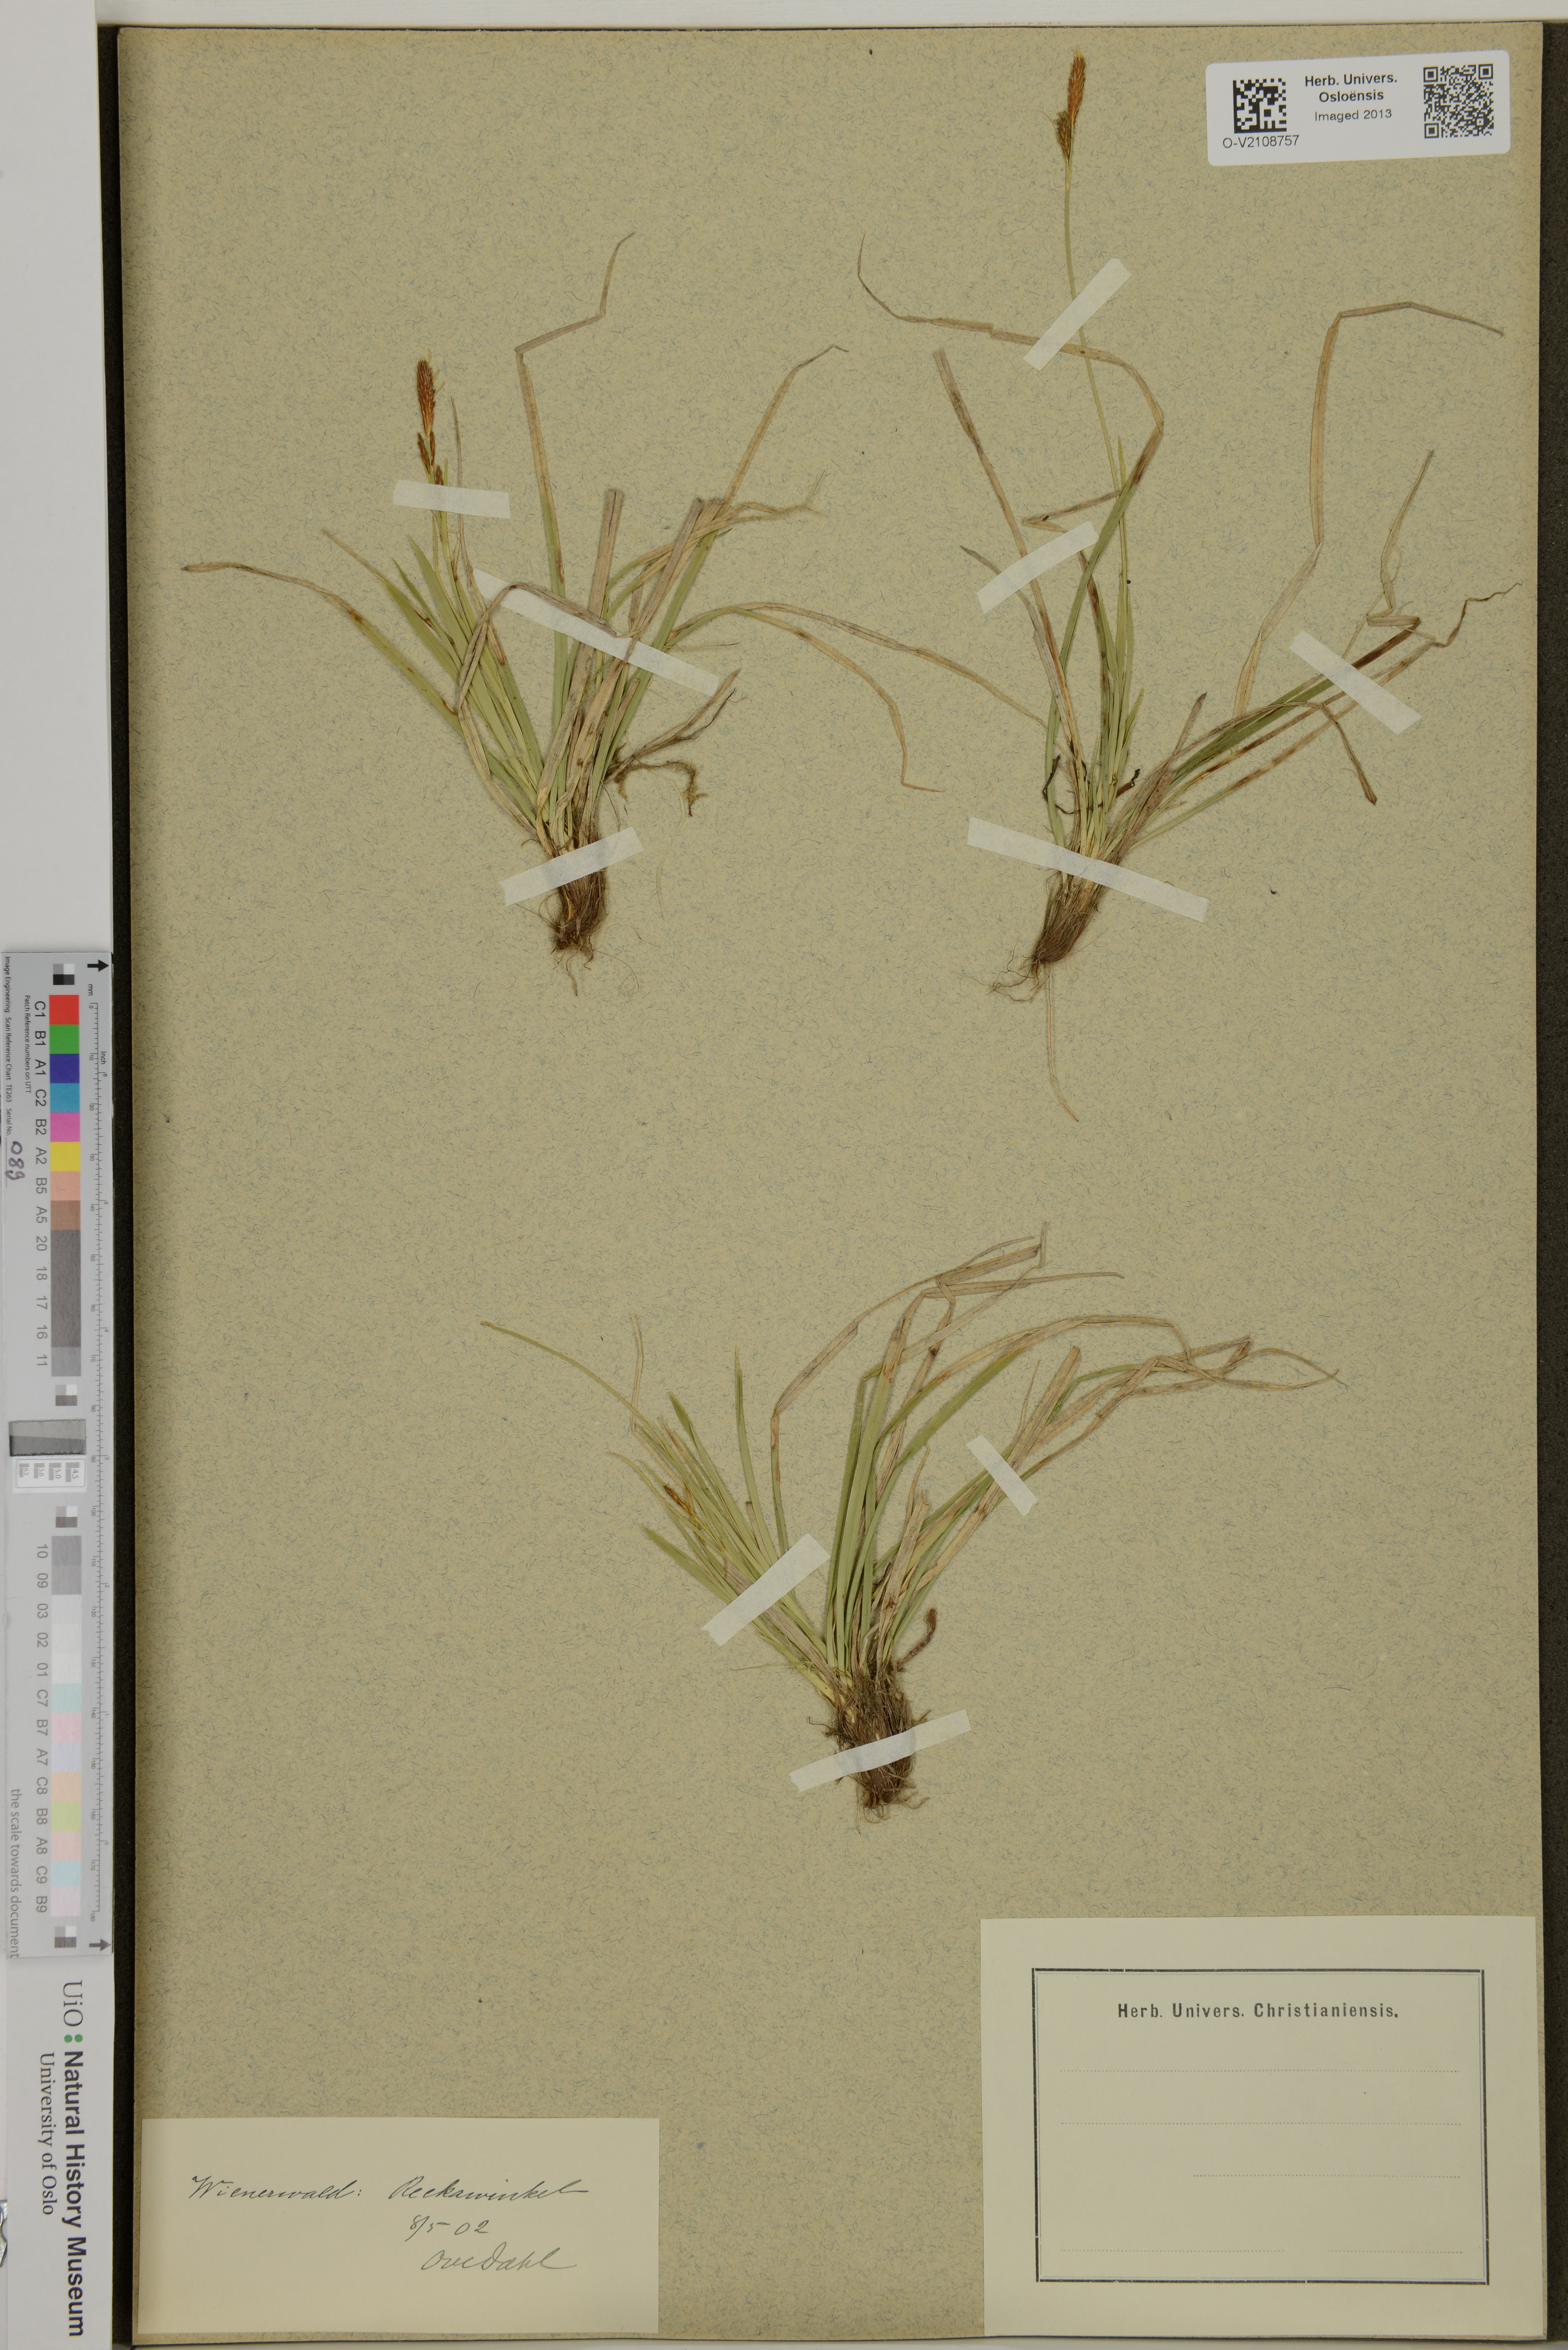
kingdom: Plantae
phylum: Tracheophyta
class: Liliopsida
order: Poales
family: Cyperaceae
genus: Carex
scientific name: Carex
